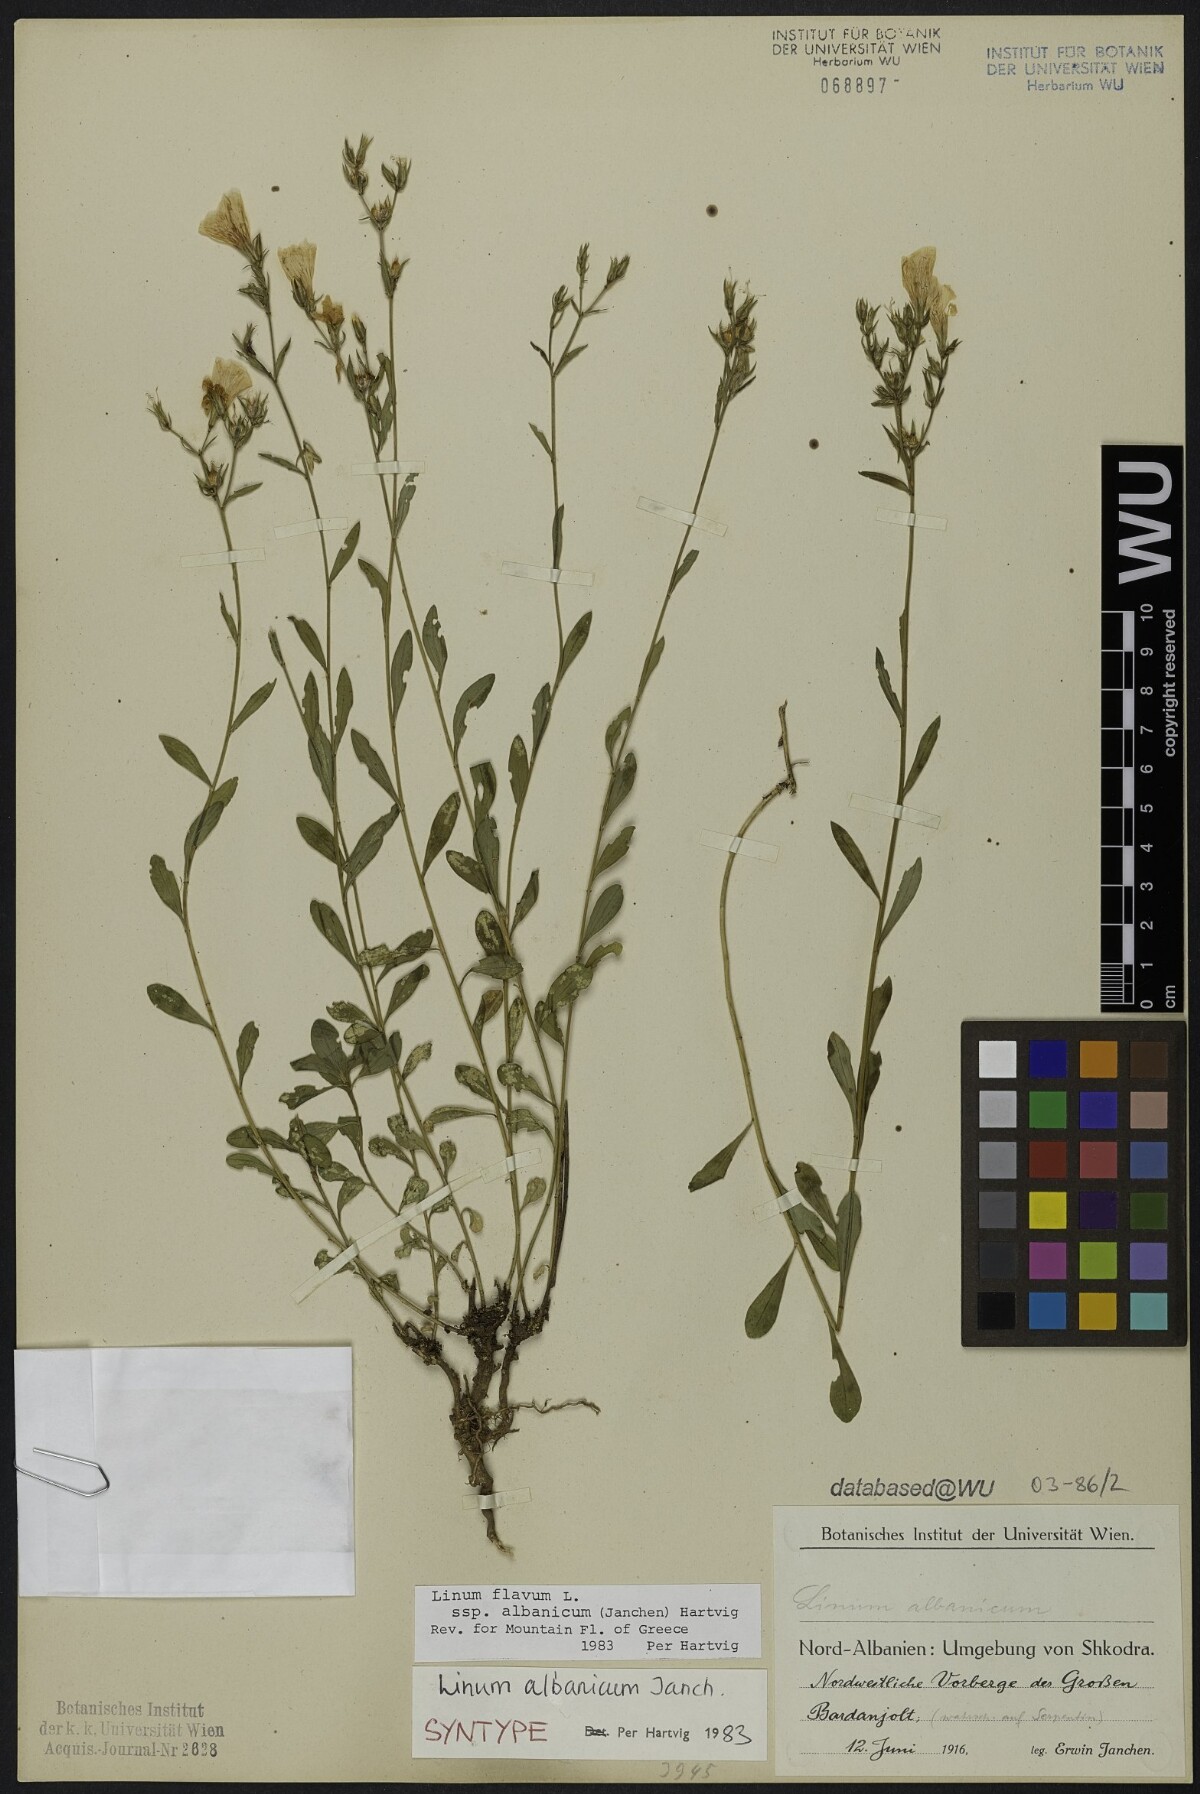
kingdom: Plantae
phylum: Tracheophyta
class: Magnoliopsida
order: Malpighiales
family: Linaceae
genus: Linum
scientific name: Linum flavum
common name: Yellow flax
